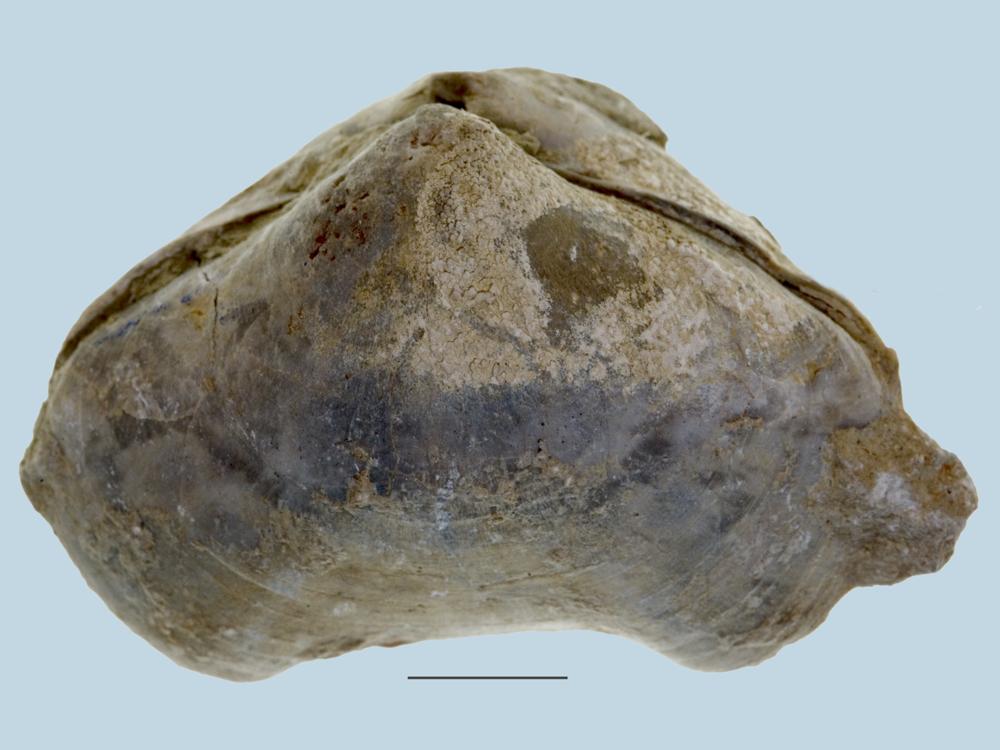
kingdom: Animalia
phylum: Brachiopoda
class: Rhynchonellata
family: Porambonitidae
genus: Porambonites
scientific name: Porambonites
